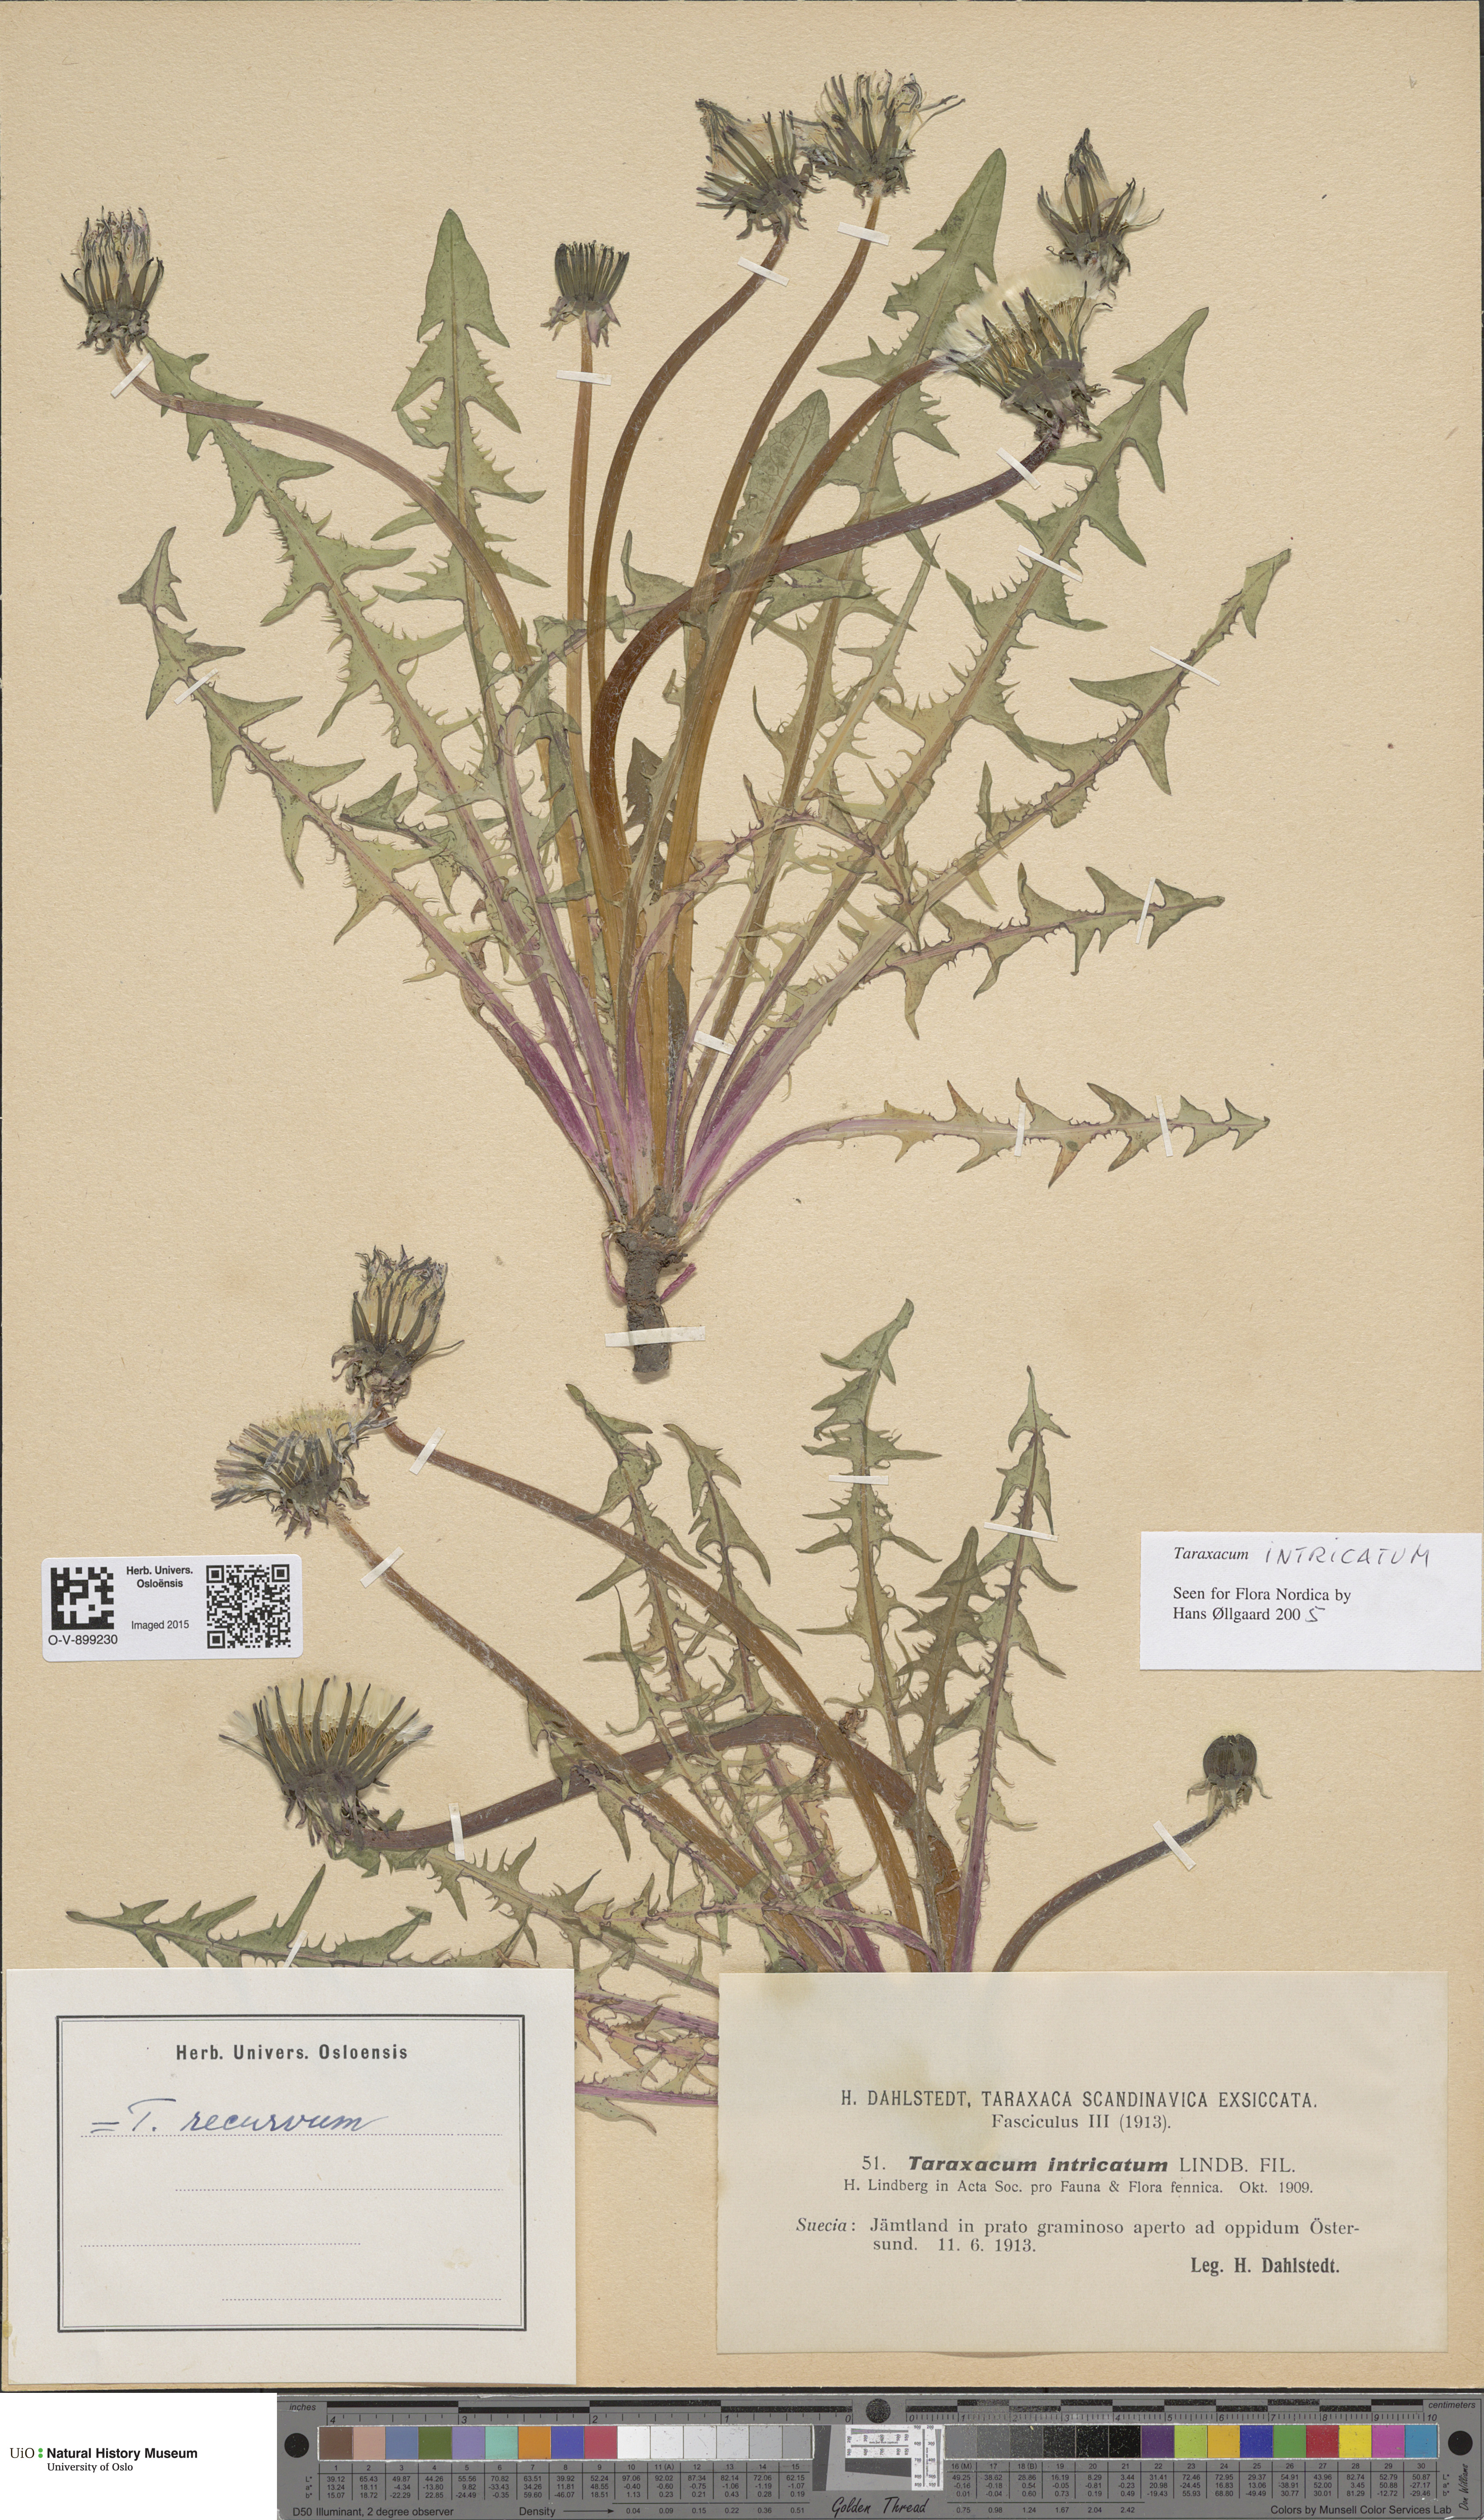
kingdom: Plantae
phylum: Tracheophyta
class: Magnoliopsida
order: Asterales
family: Asteraceae
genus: Taraxacum
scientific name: Taraxacum recurvum
